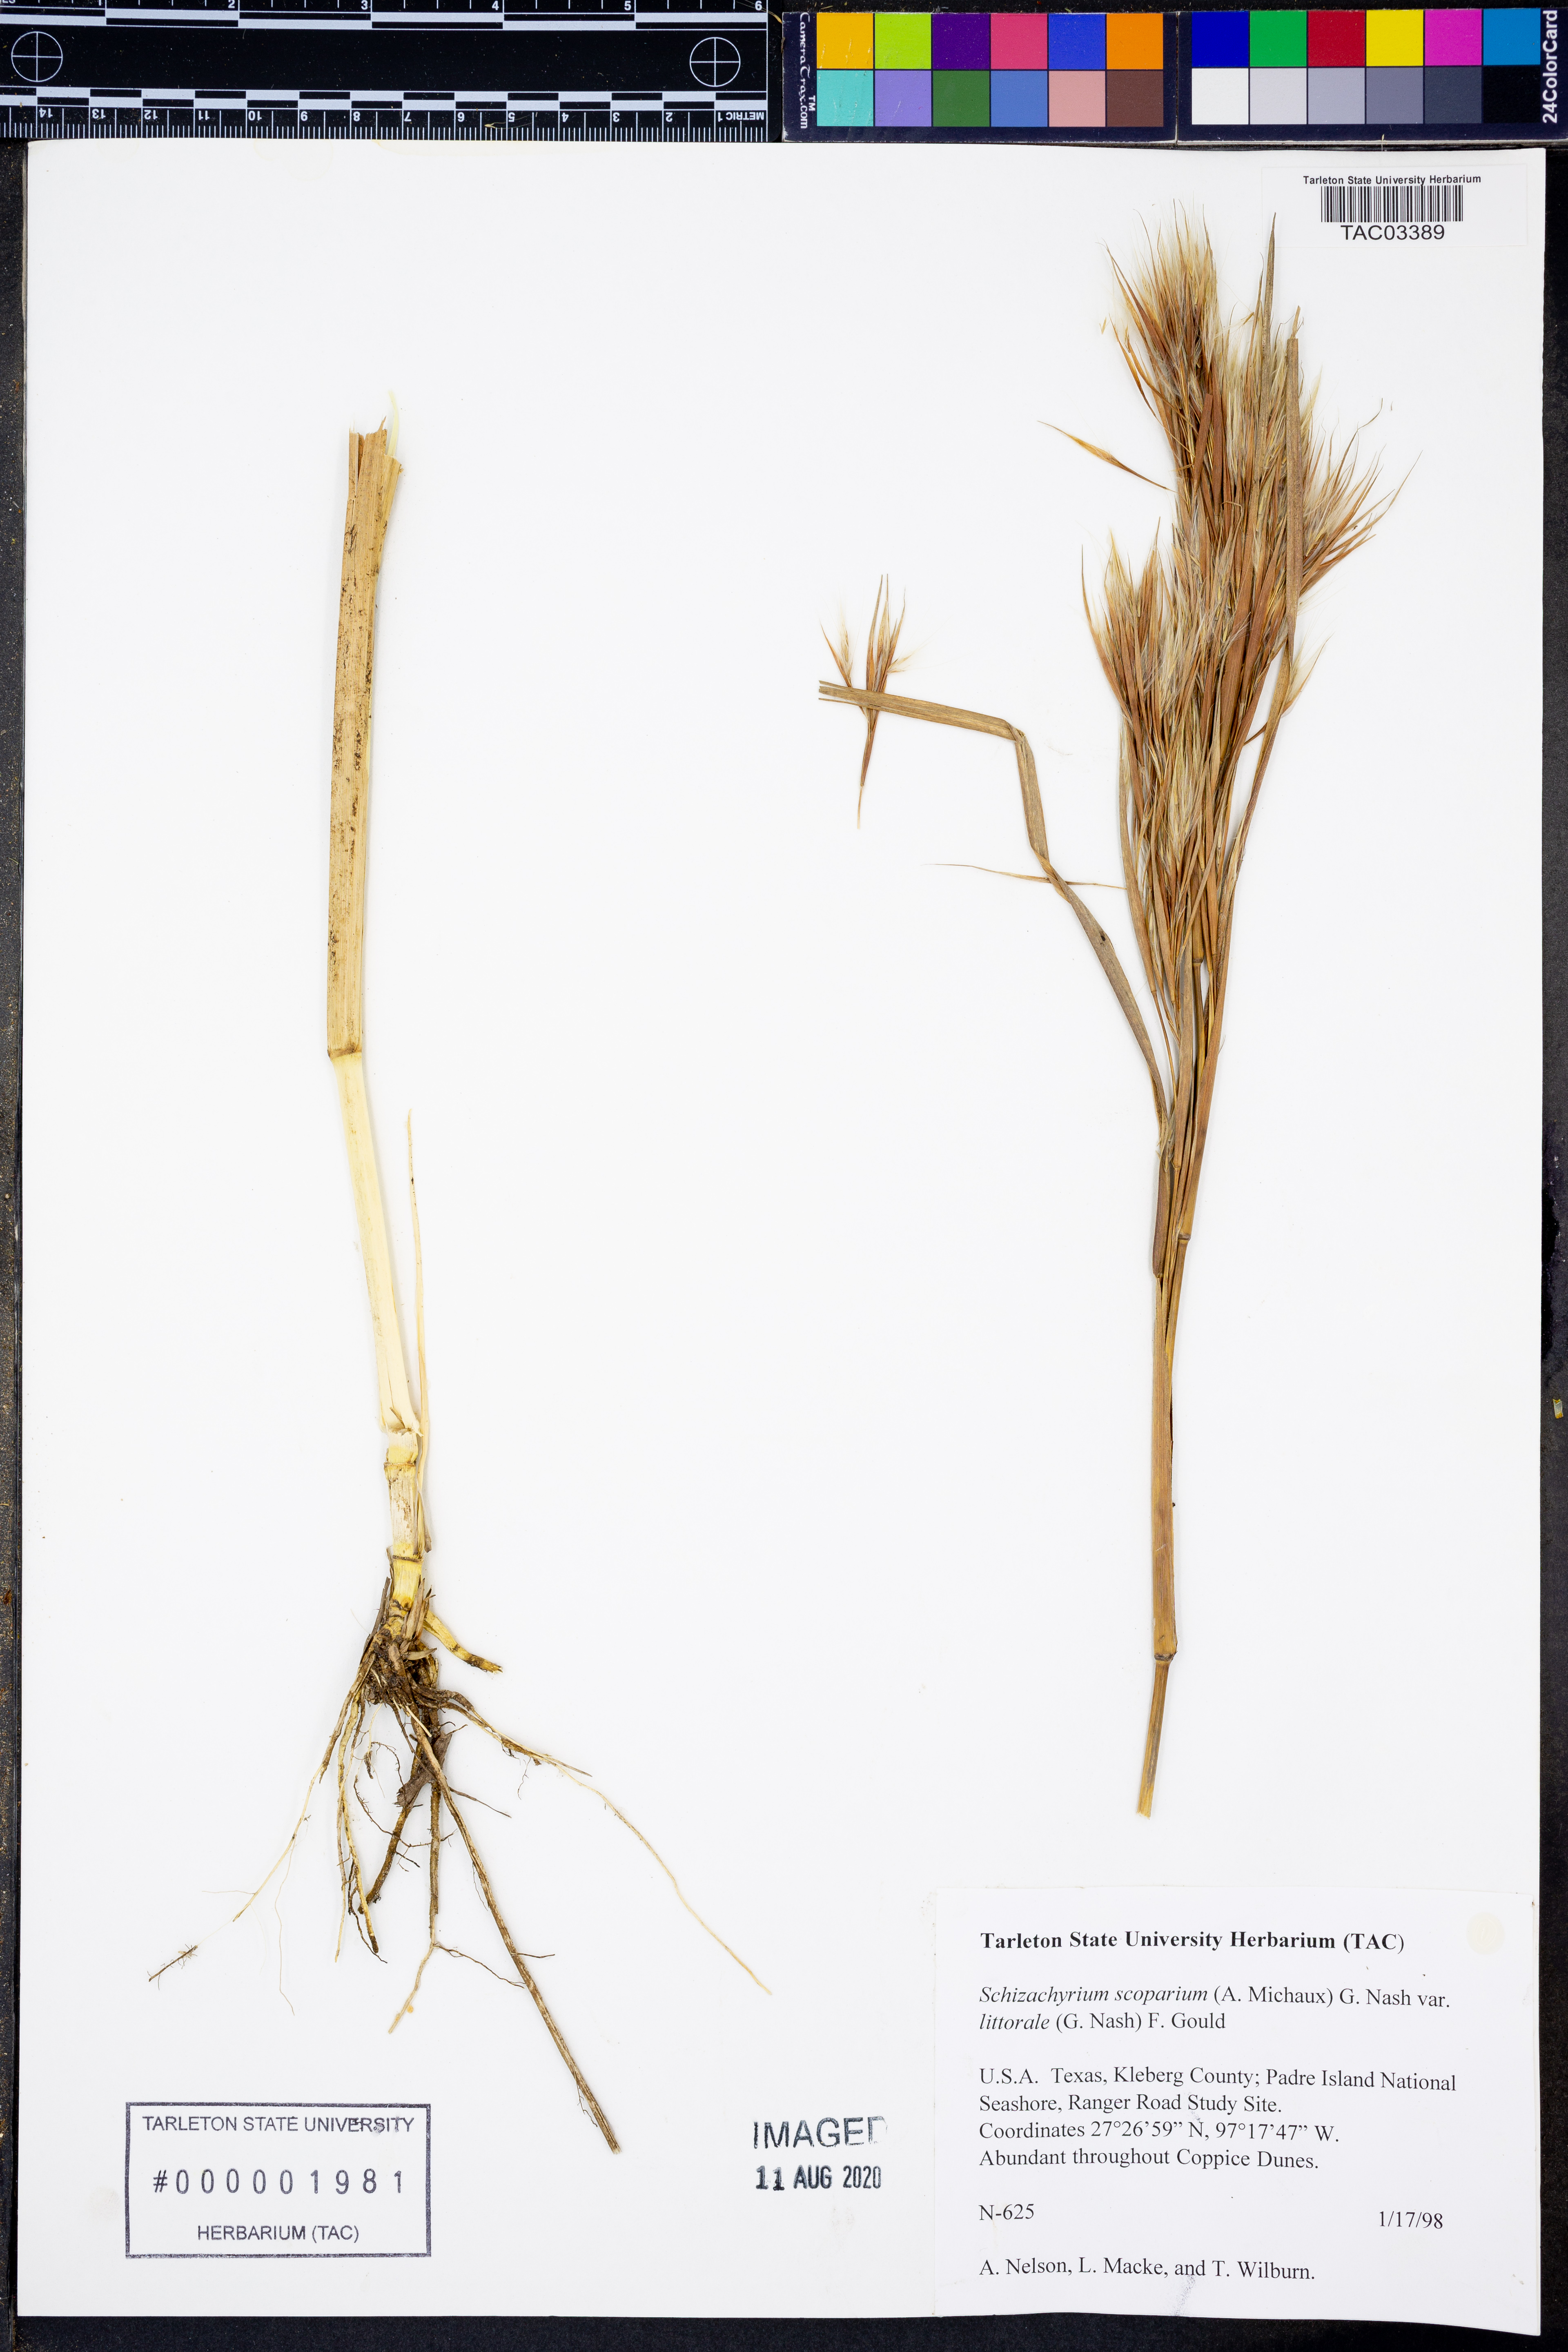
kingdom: Plantae
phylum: Tracheophyta
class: Liliopsida
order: Poales
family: Poaceae
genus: Schizachyrium
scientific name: Schizachyrium scoparium
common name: Little bluestem
